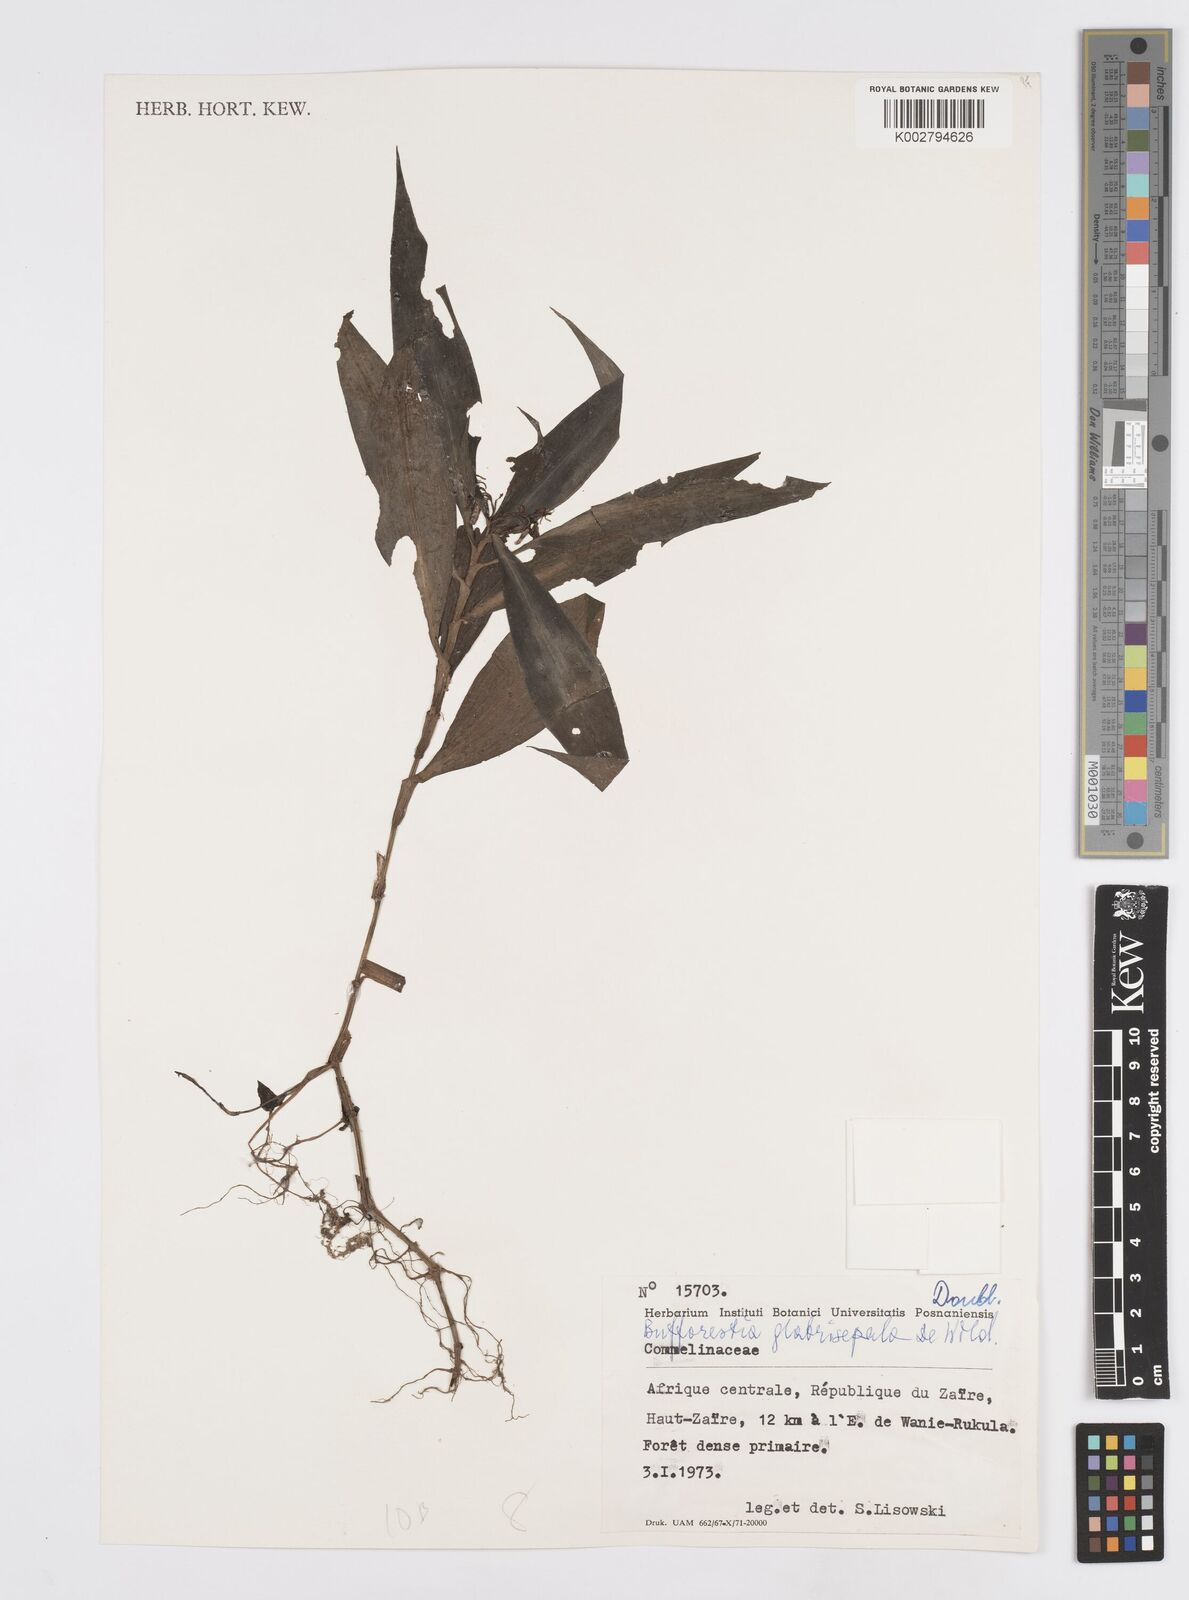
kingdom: Plantae
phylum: Tracheophyta
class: Liliopsida
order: Commelinales
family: Commelinaceae
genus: Stanfieldiella
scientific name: Stanfieldiella imperforata
